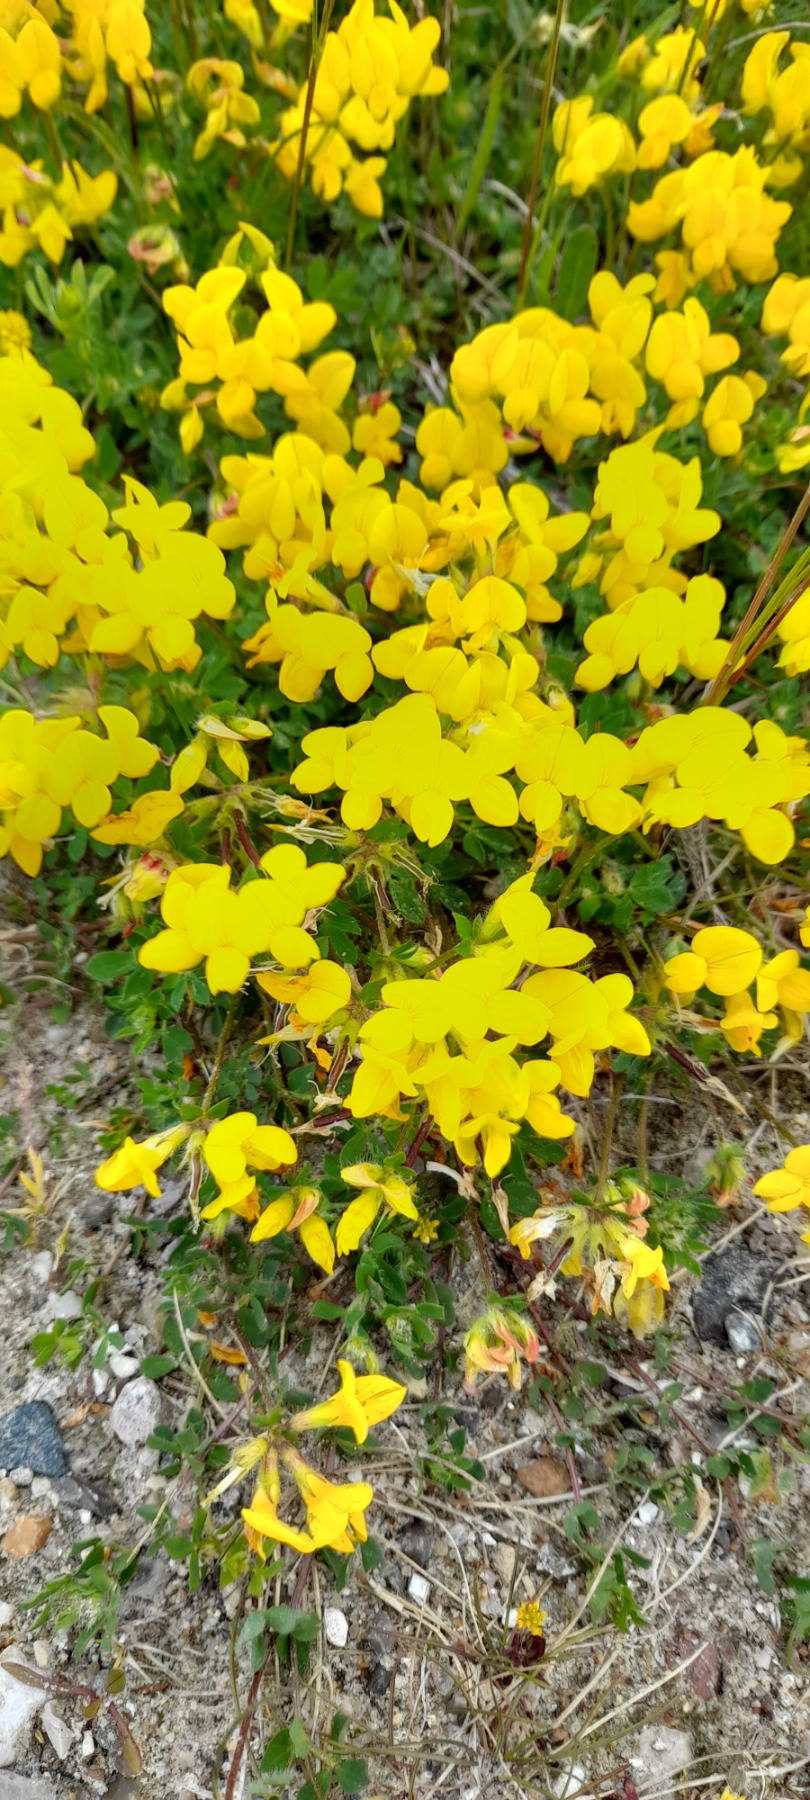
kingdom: Plantae
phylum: Tracheophyta
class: Magnoliopsida
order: Fabales
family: Fabaceae
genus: Lotus
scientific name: Lotus corniculatus
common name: Almindelig kællingetand
